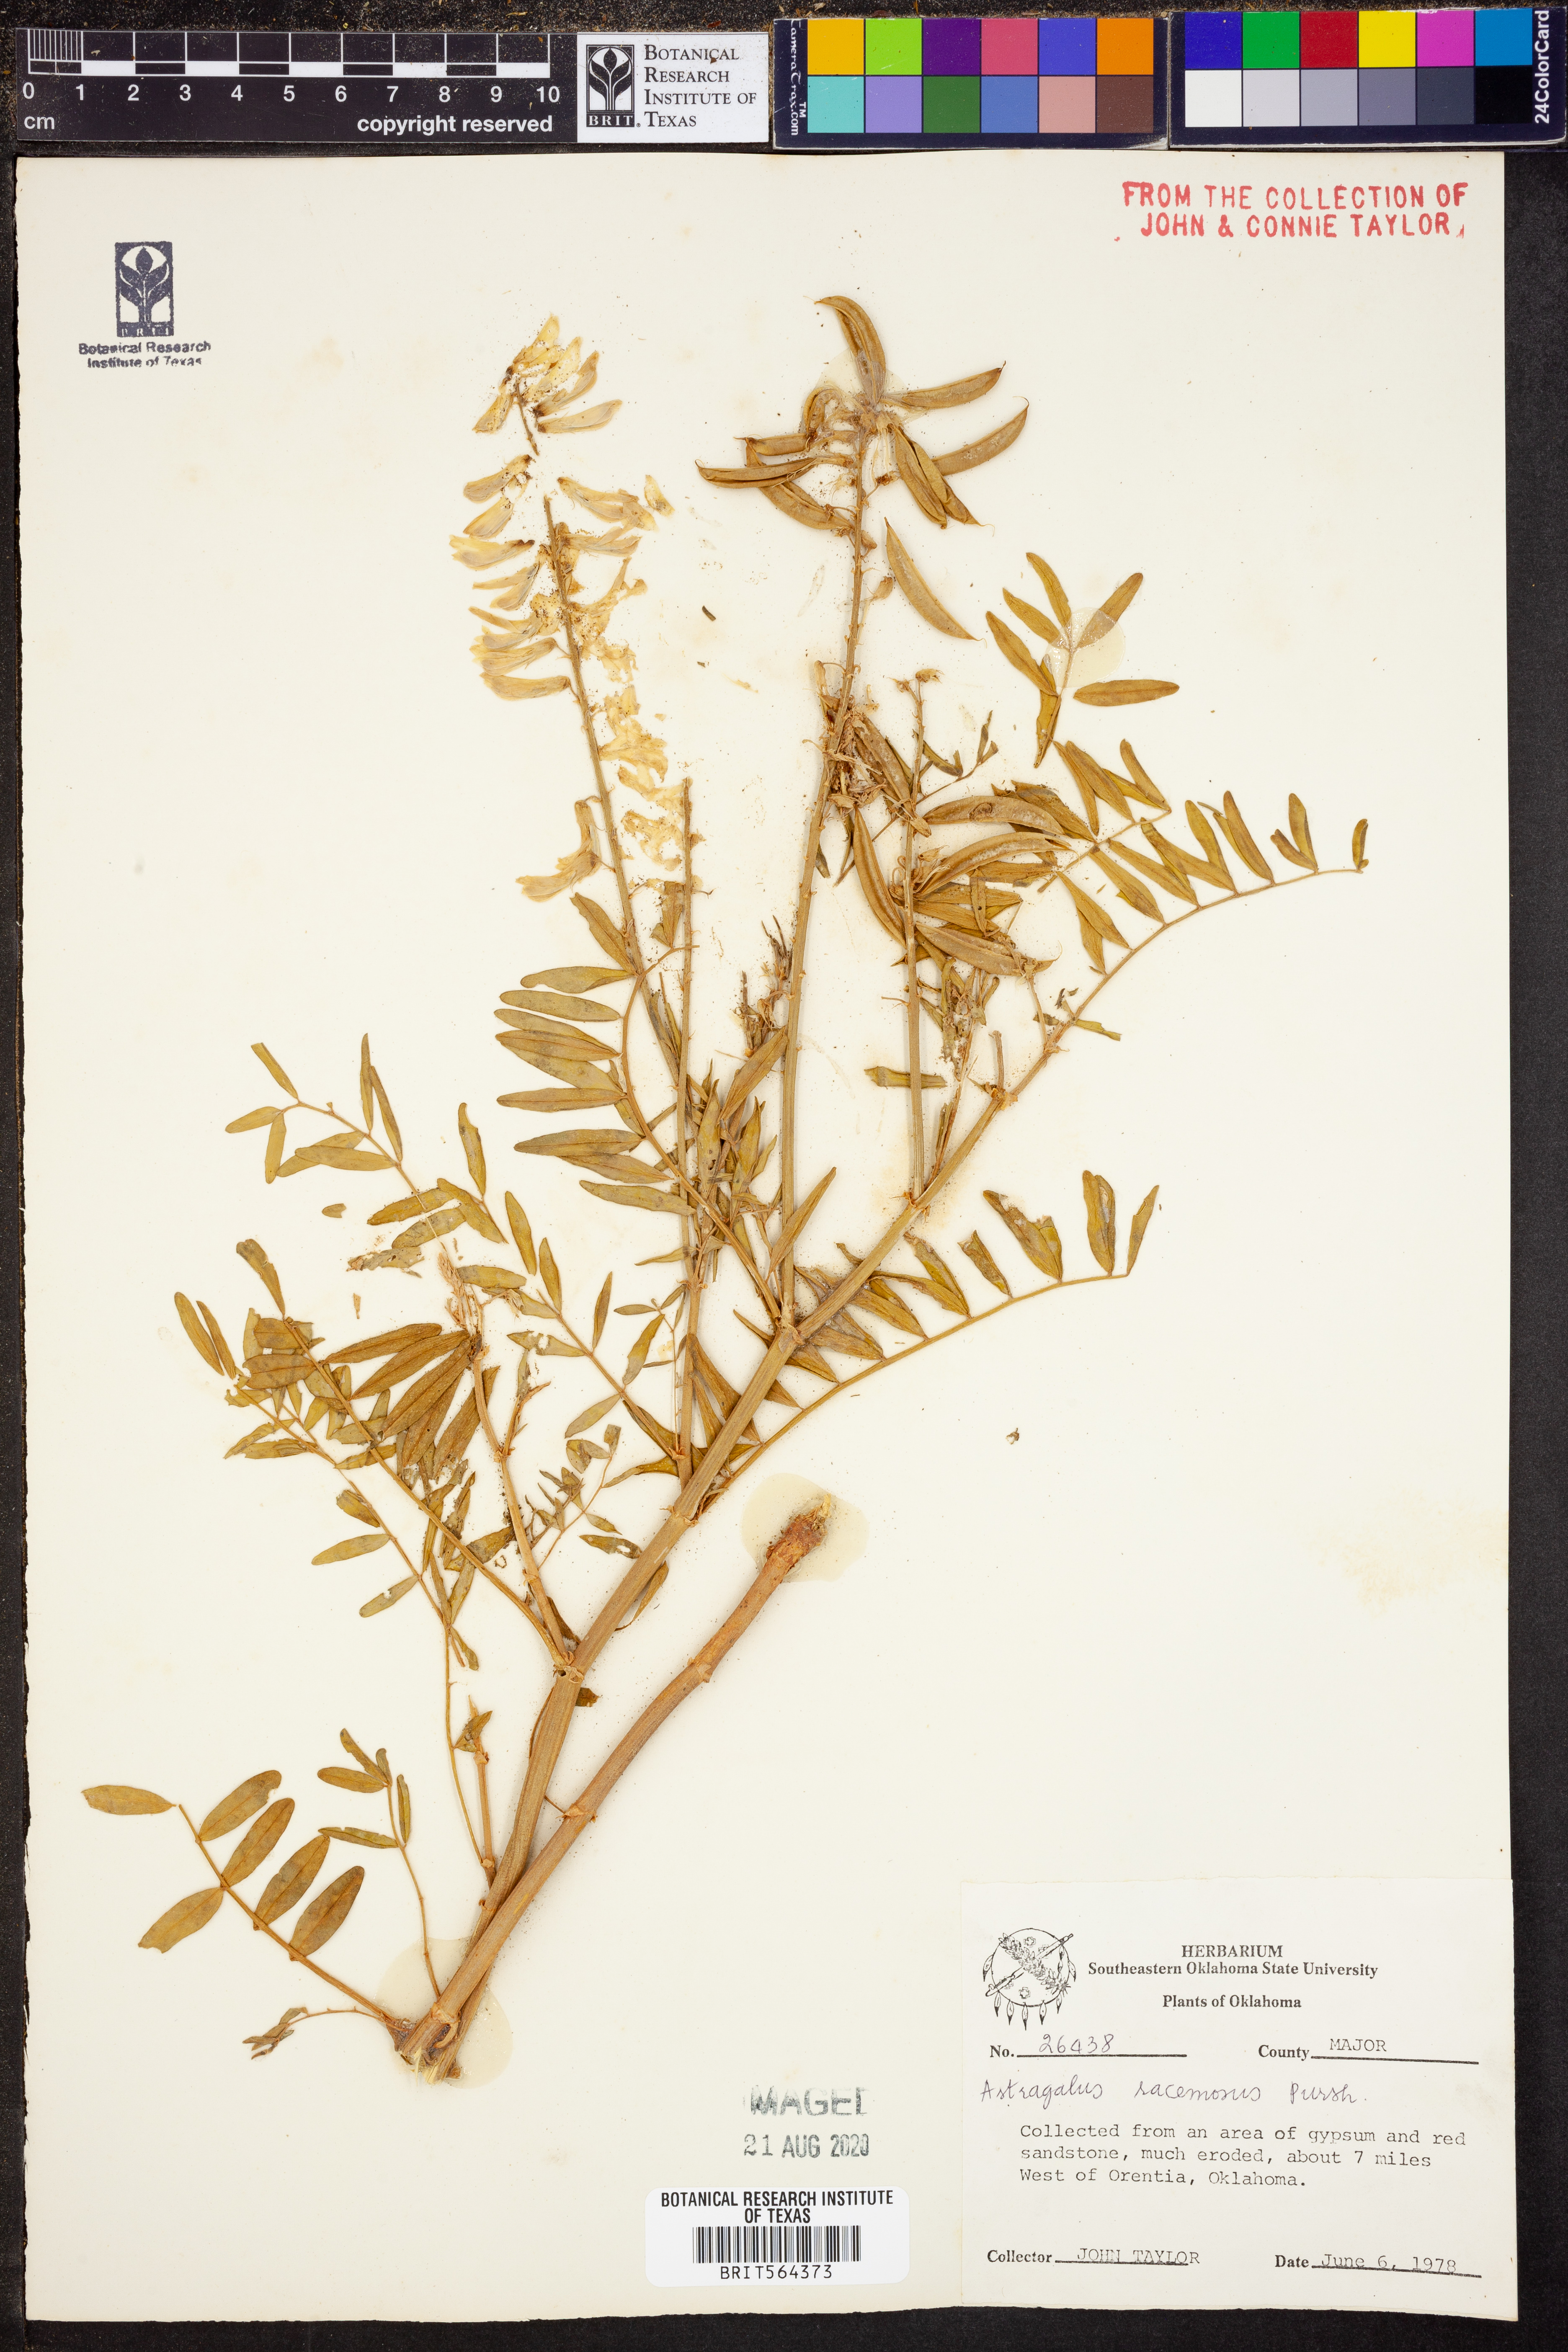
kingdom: Plantae
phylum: Tracheophyta
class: Magnoliopsida
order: Fabales
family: Fabaceae
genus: Astragalus
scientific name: Astragalus racemosus
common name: Alkali milk-vetch
